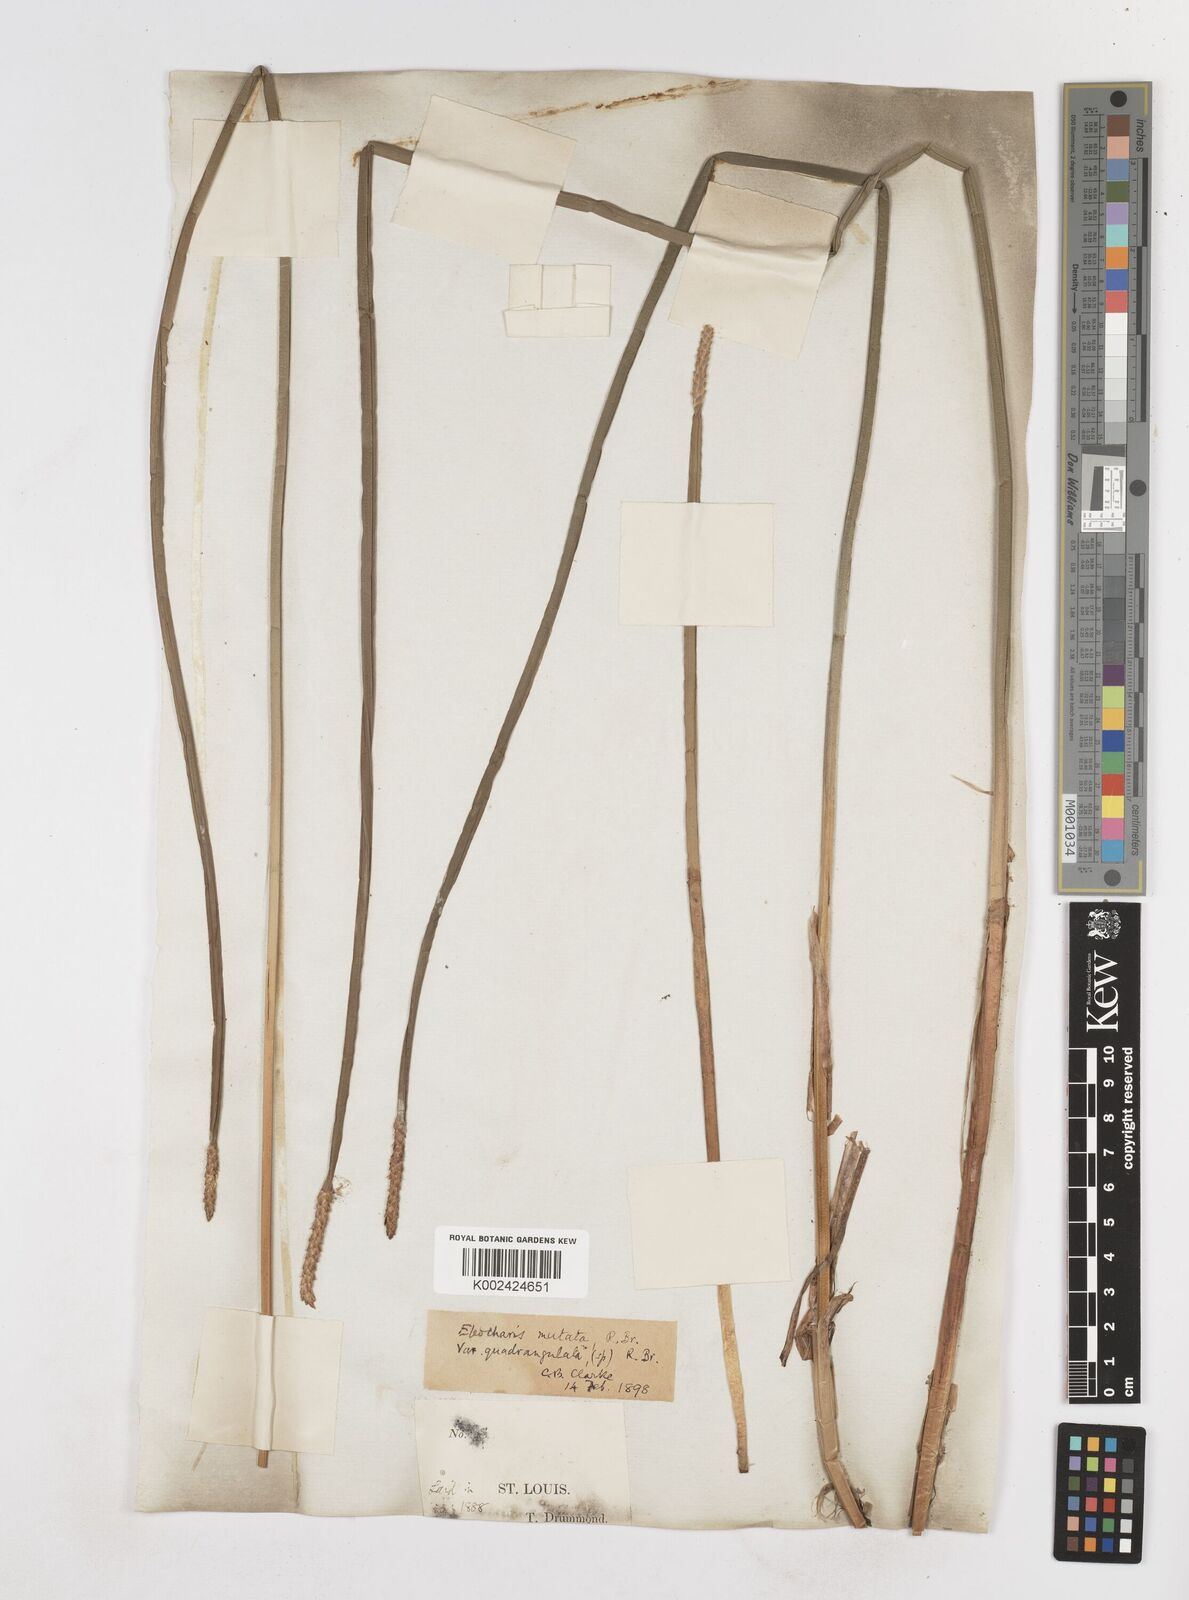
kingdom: Plantae
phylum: Tracheophyta
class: Liliopsida
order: Poales
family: Cyperaceae
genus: Eleocharis
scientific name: Eleocharis mutata
